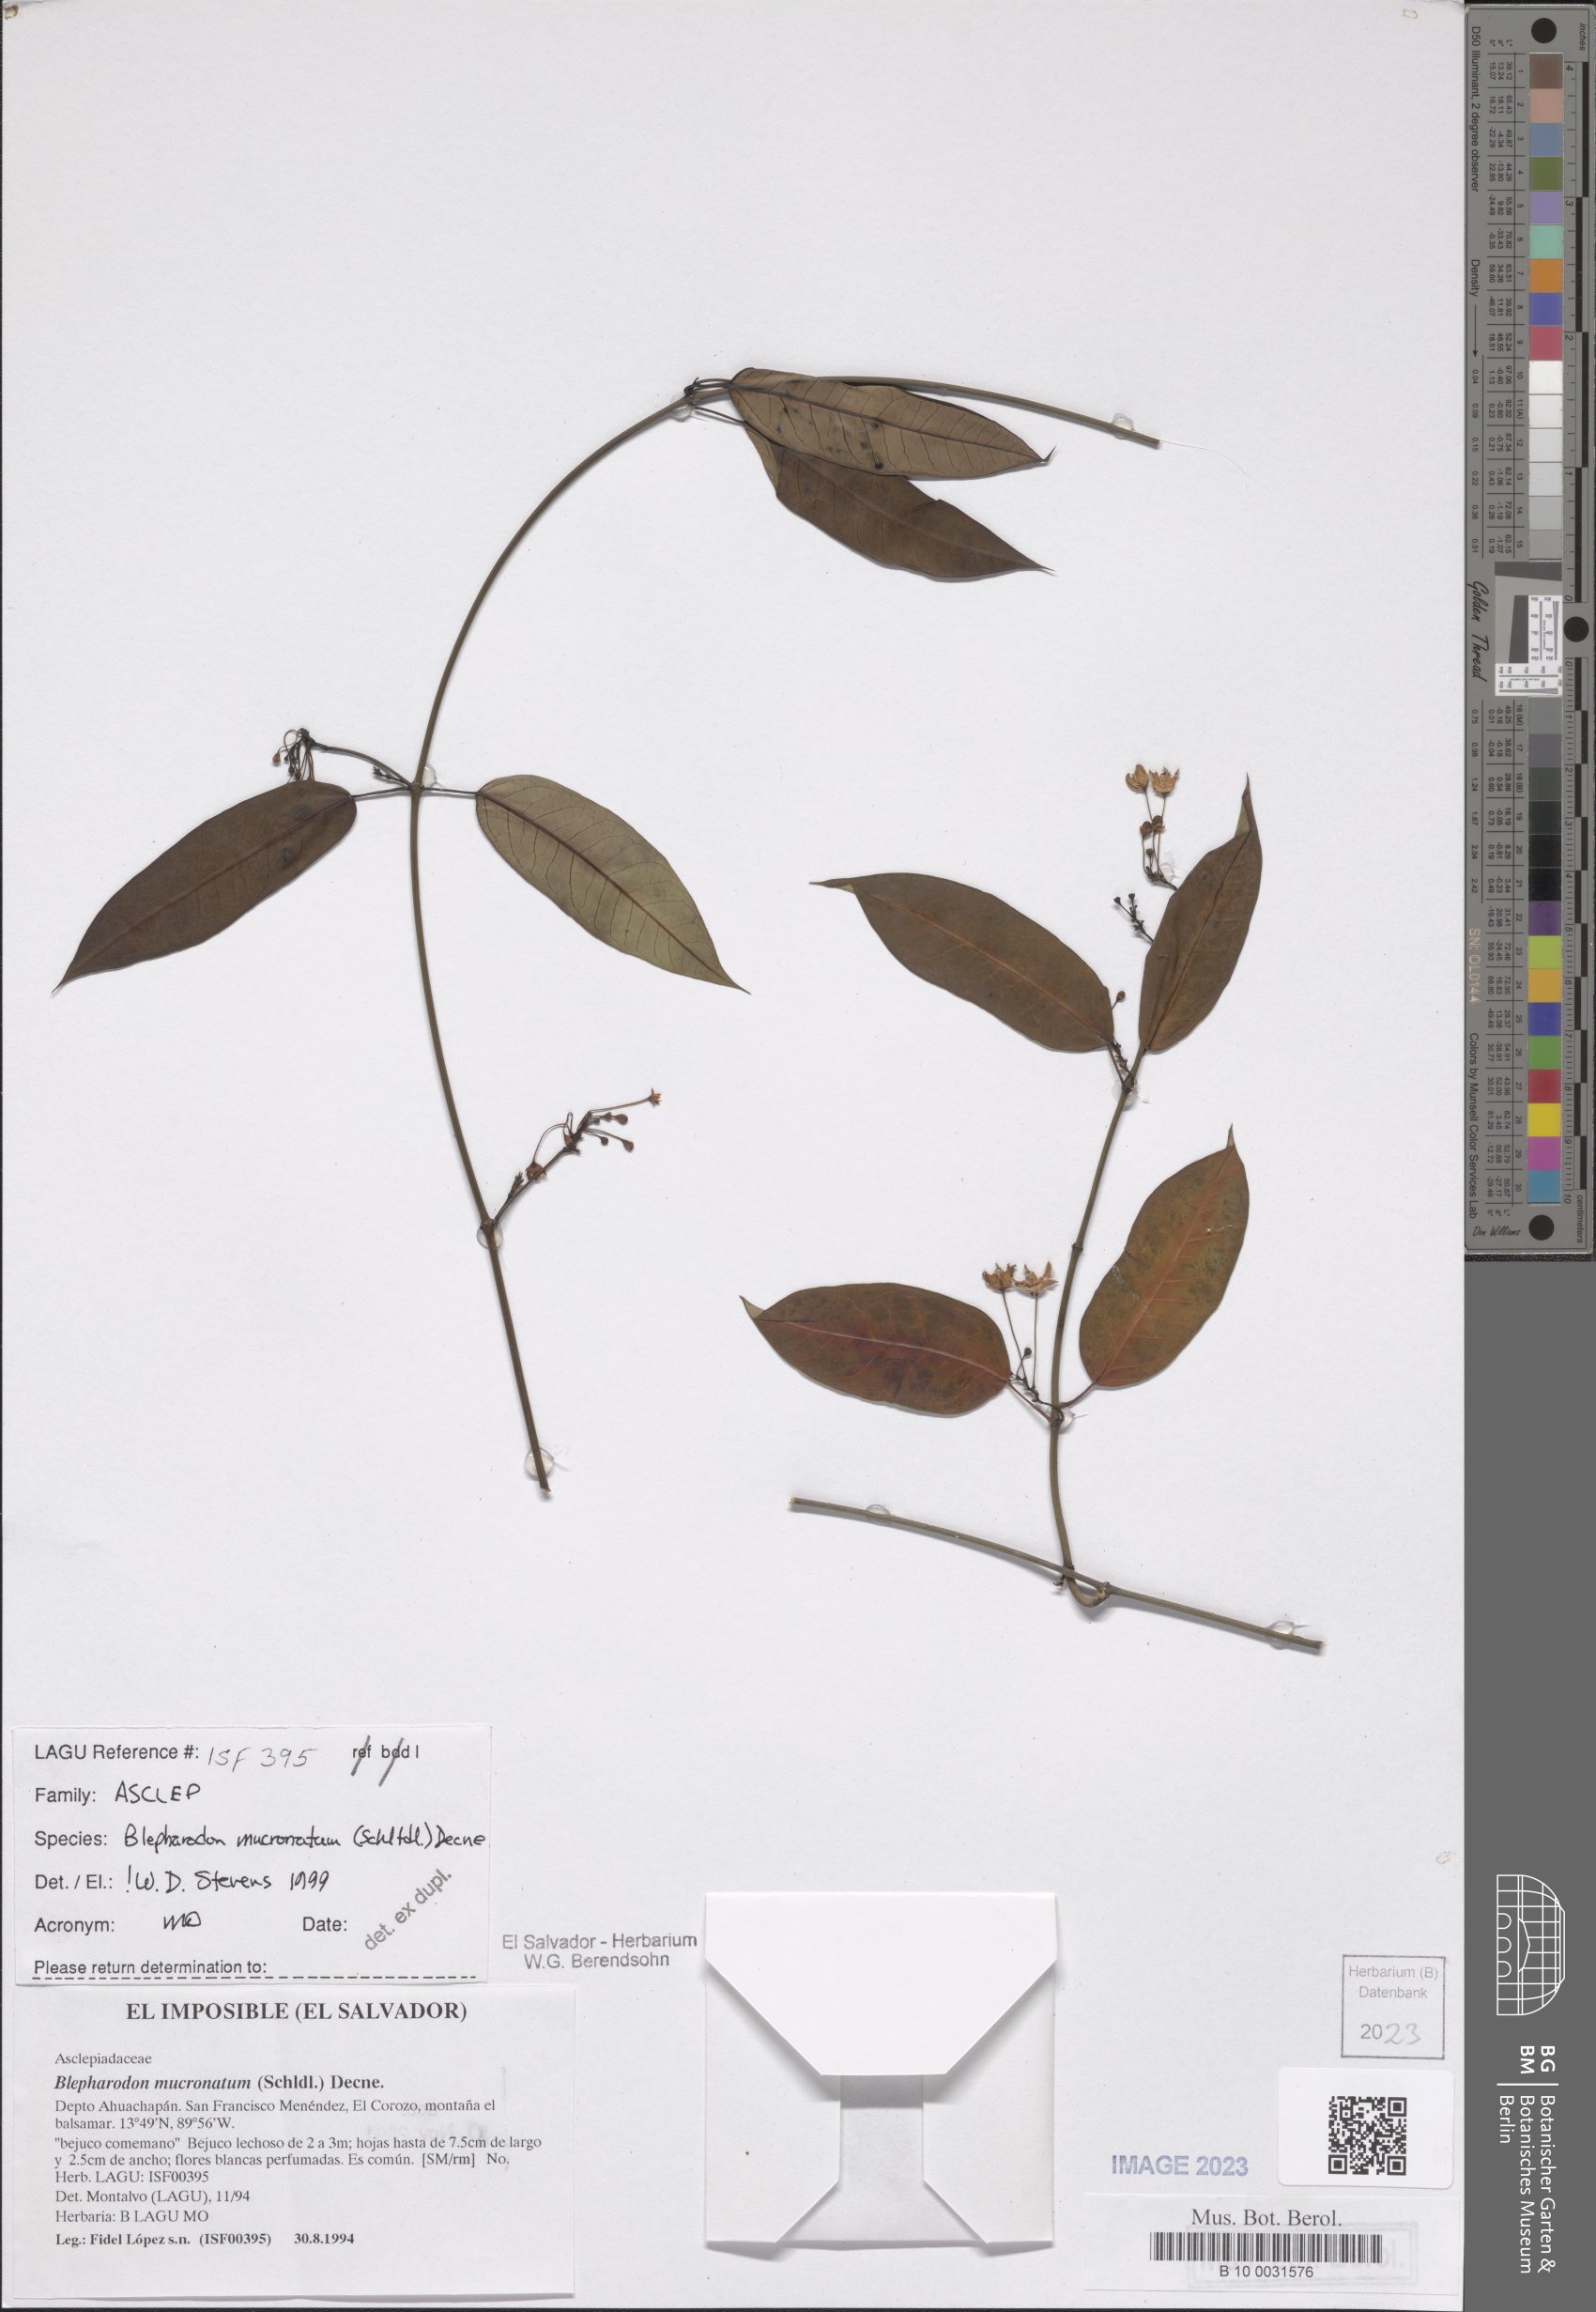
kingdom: Plantae
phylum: Tracheophyta
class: Magnoliopsida
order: Gentianales
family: Apocynaceae
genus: Vailia
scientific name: Vailia anomala
